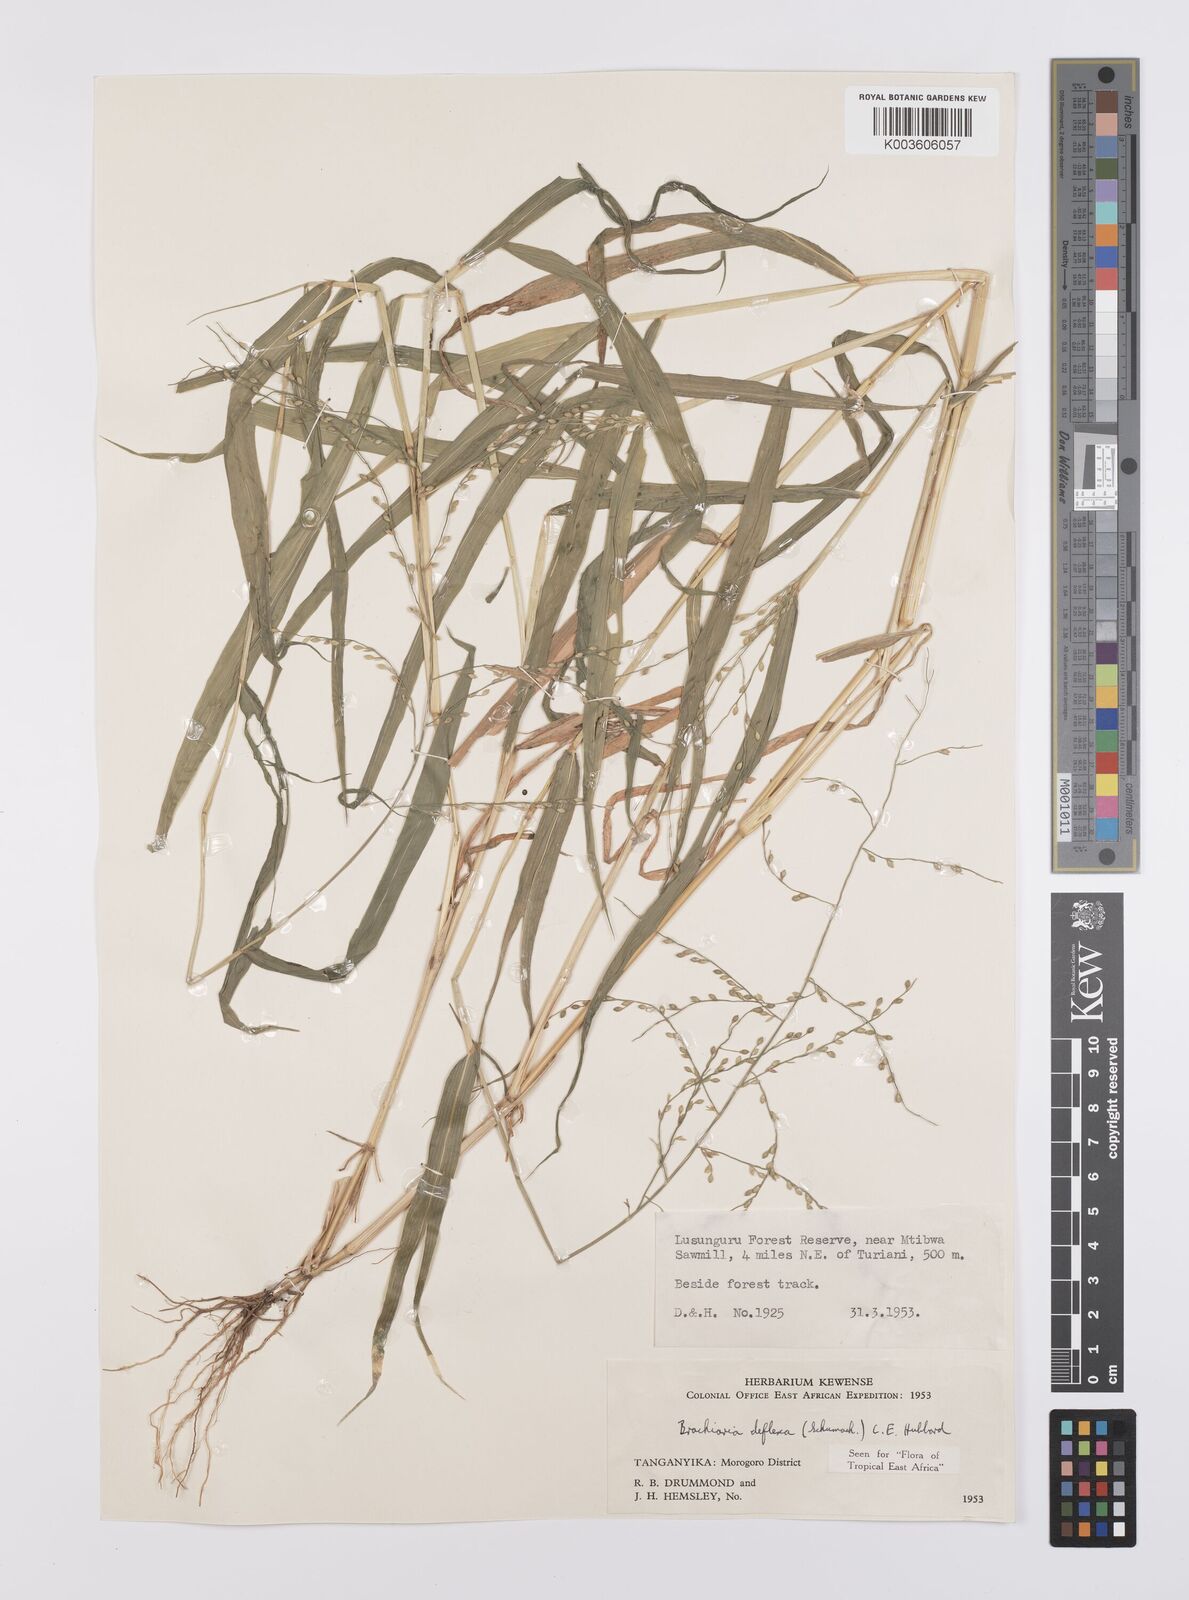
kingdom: Plantae
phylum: Tracheophyta
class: Liliopsida
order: Poales
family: Poaceae
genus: Urochloa
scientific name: Urochloa deflexa
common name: Guinea millet
